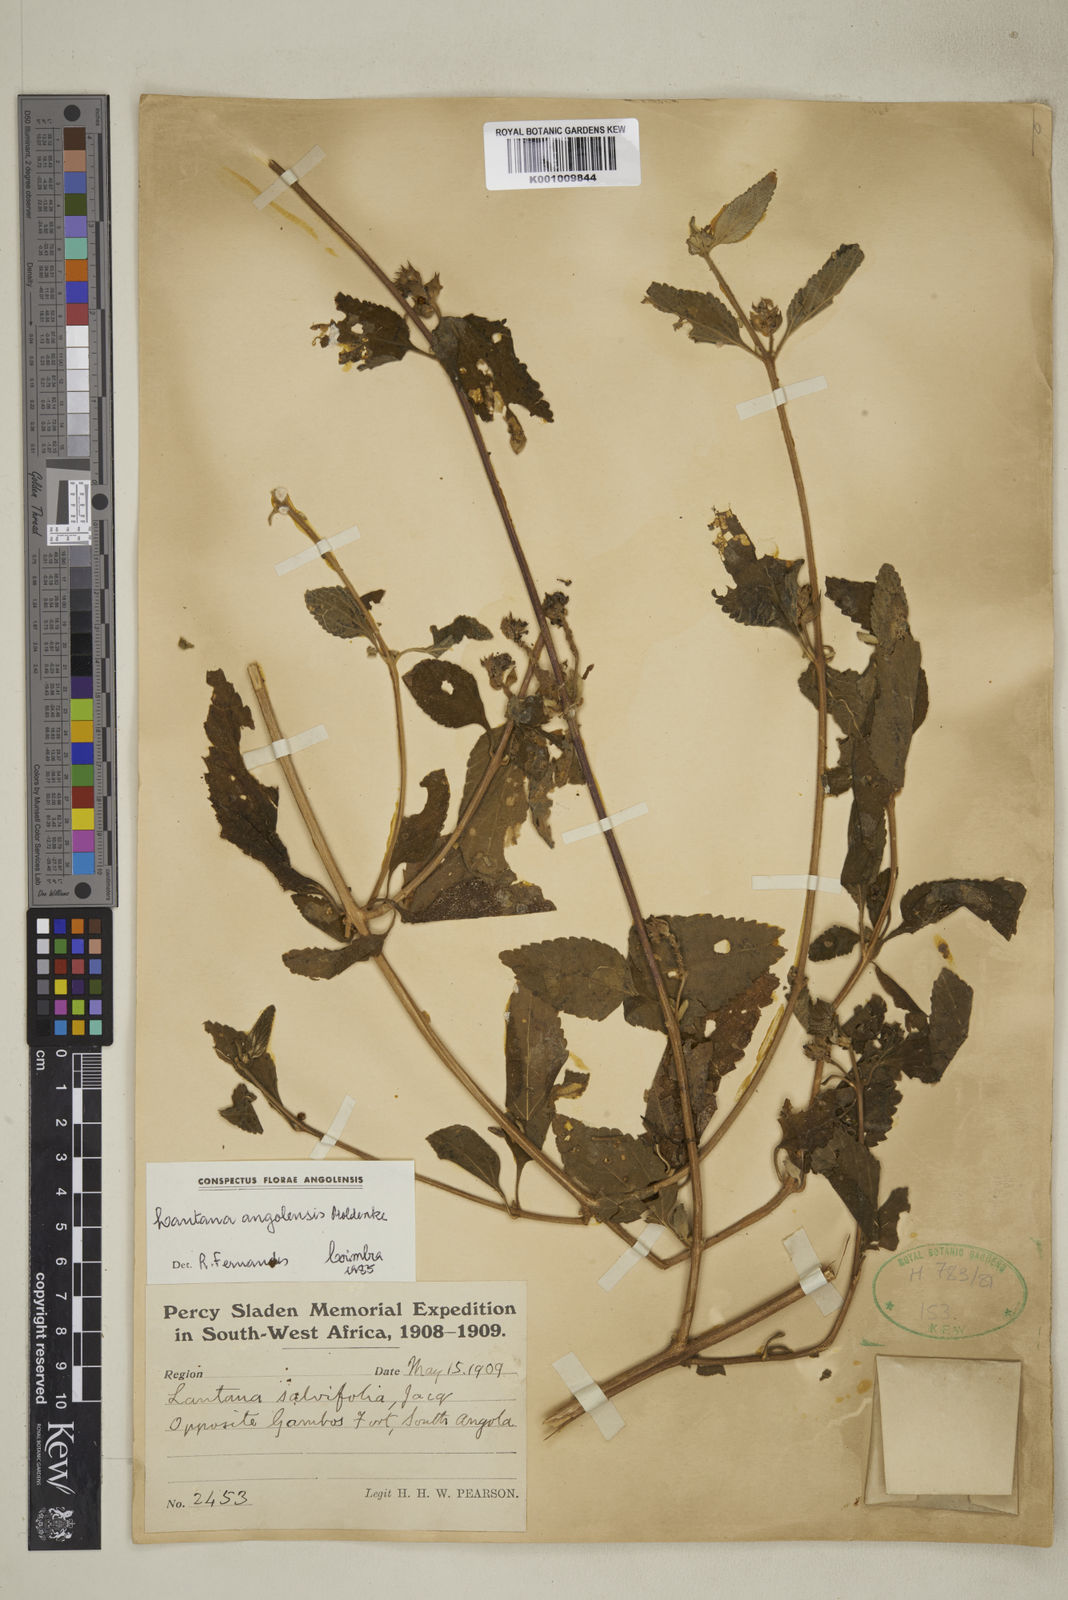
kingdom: Plantae
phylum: Tracheophyta
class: Magnoliopsida
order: Lamiales
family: Verbenaceae
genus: Lantana
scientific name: Lantana angolensis
